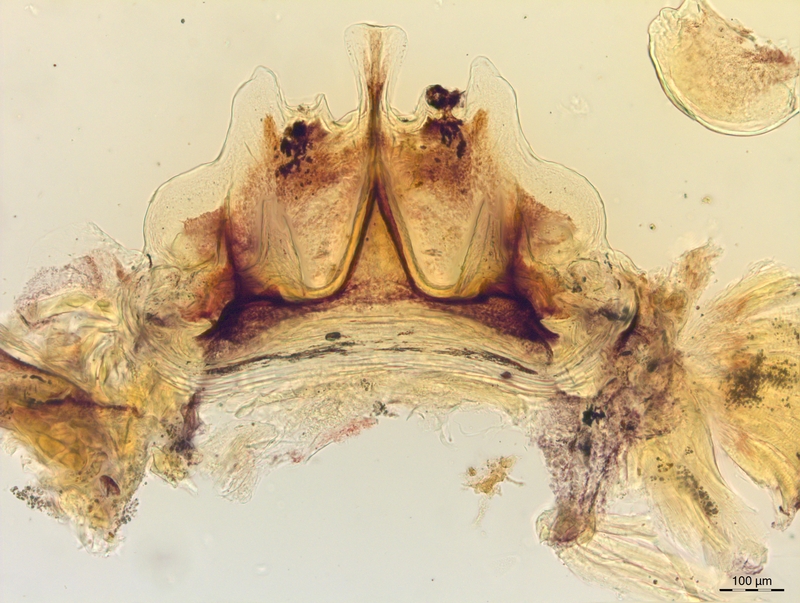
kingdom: Animalia
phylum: Arthropoda
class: Diplopoda
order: Chordeumatida
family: Craspedosomatidae
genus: Craspedosoma
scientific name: Craspedosoma alemannicum
